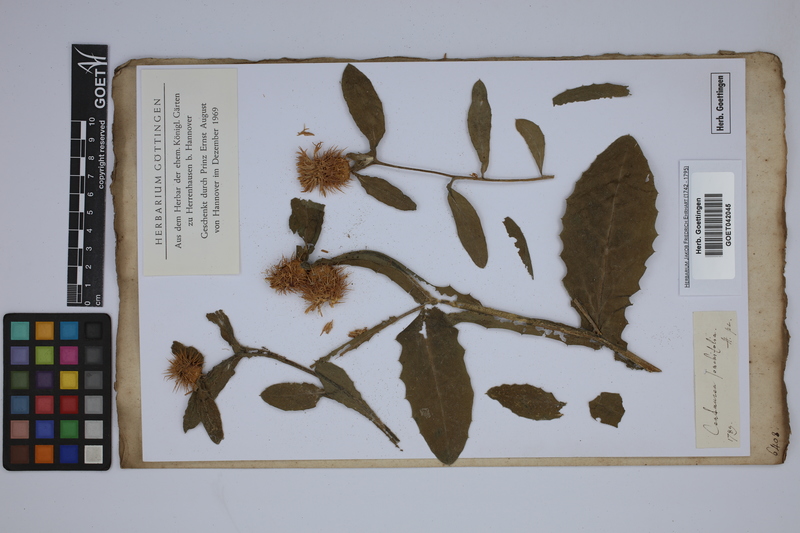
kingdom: Plantae
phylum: Tracheophyta
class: Magnoliopsida
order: Asterales
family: Asteraceae
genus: Centaurea
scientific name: Centaurea seridis
